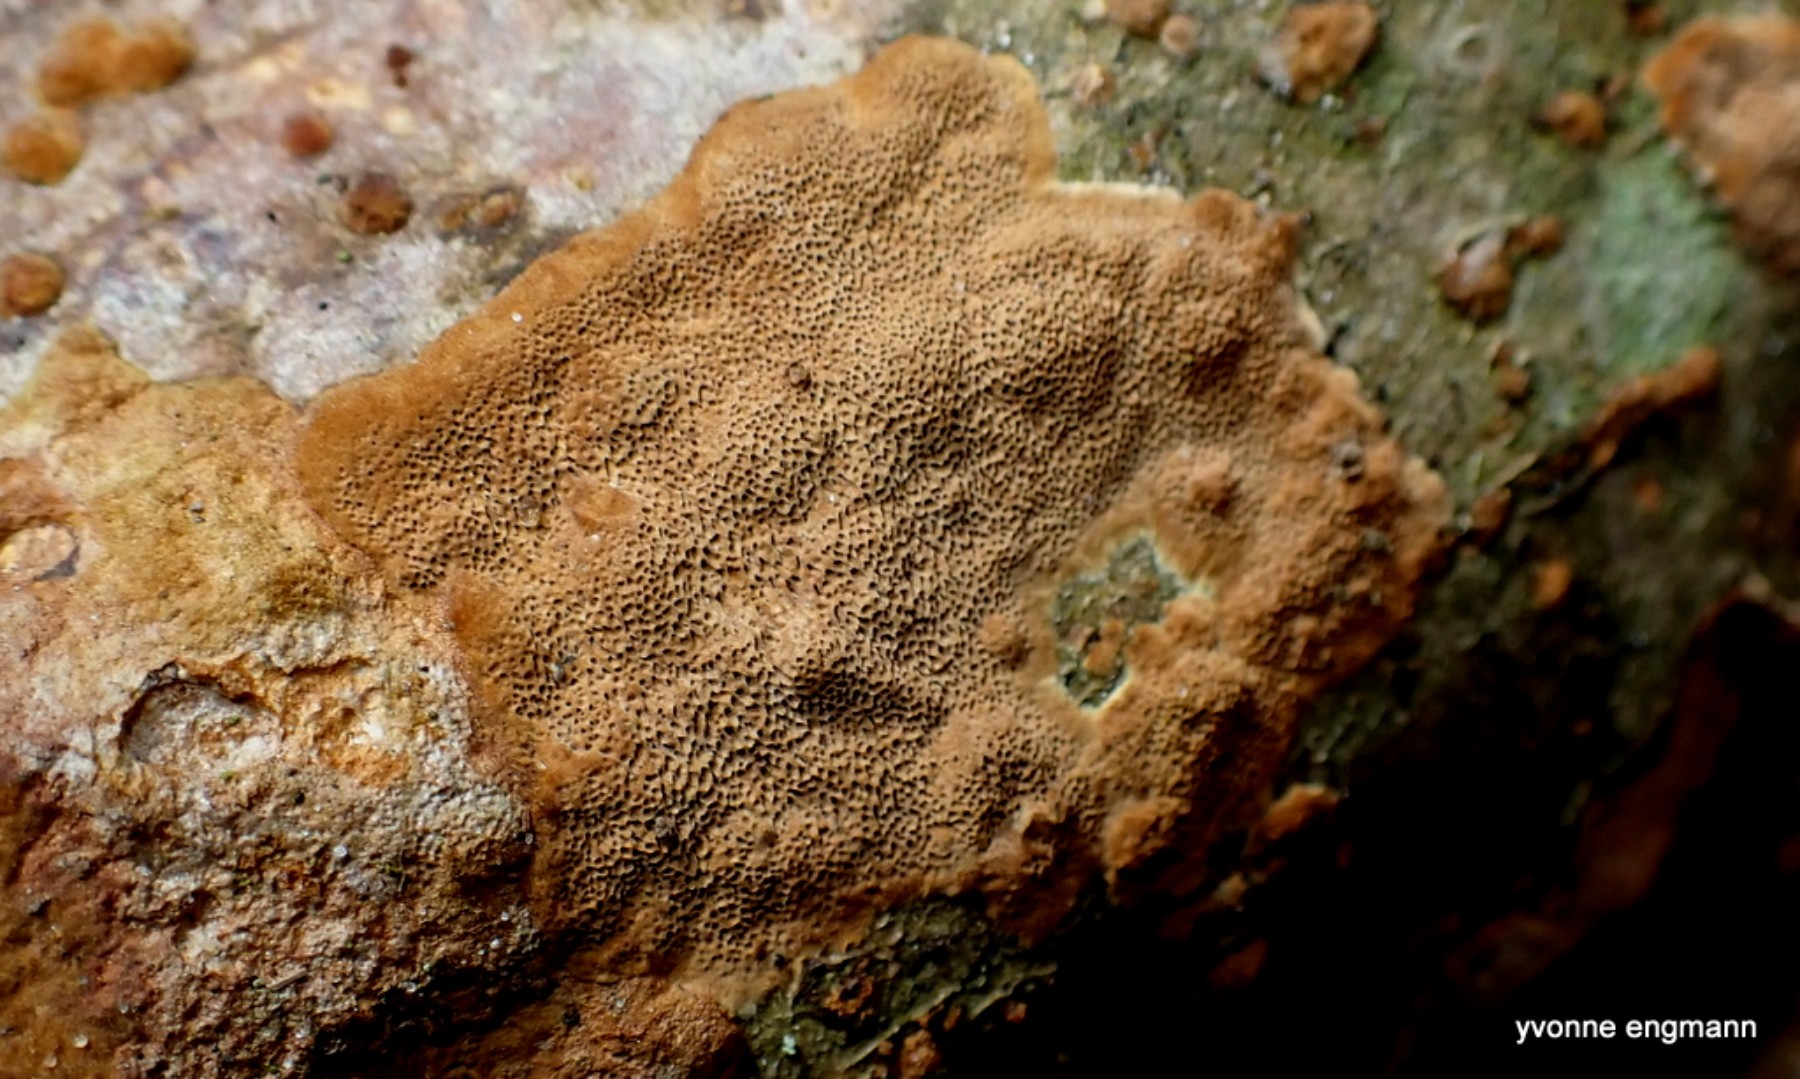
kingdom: Fungi
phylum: Basidiomycota
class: Agaricomycetes
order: Hymenochaetales
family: Hymenochaetaceae
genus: Fuscoporia
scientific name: Fuscoporia ferrea
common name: skorpe-ildporesvamp
